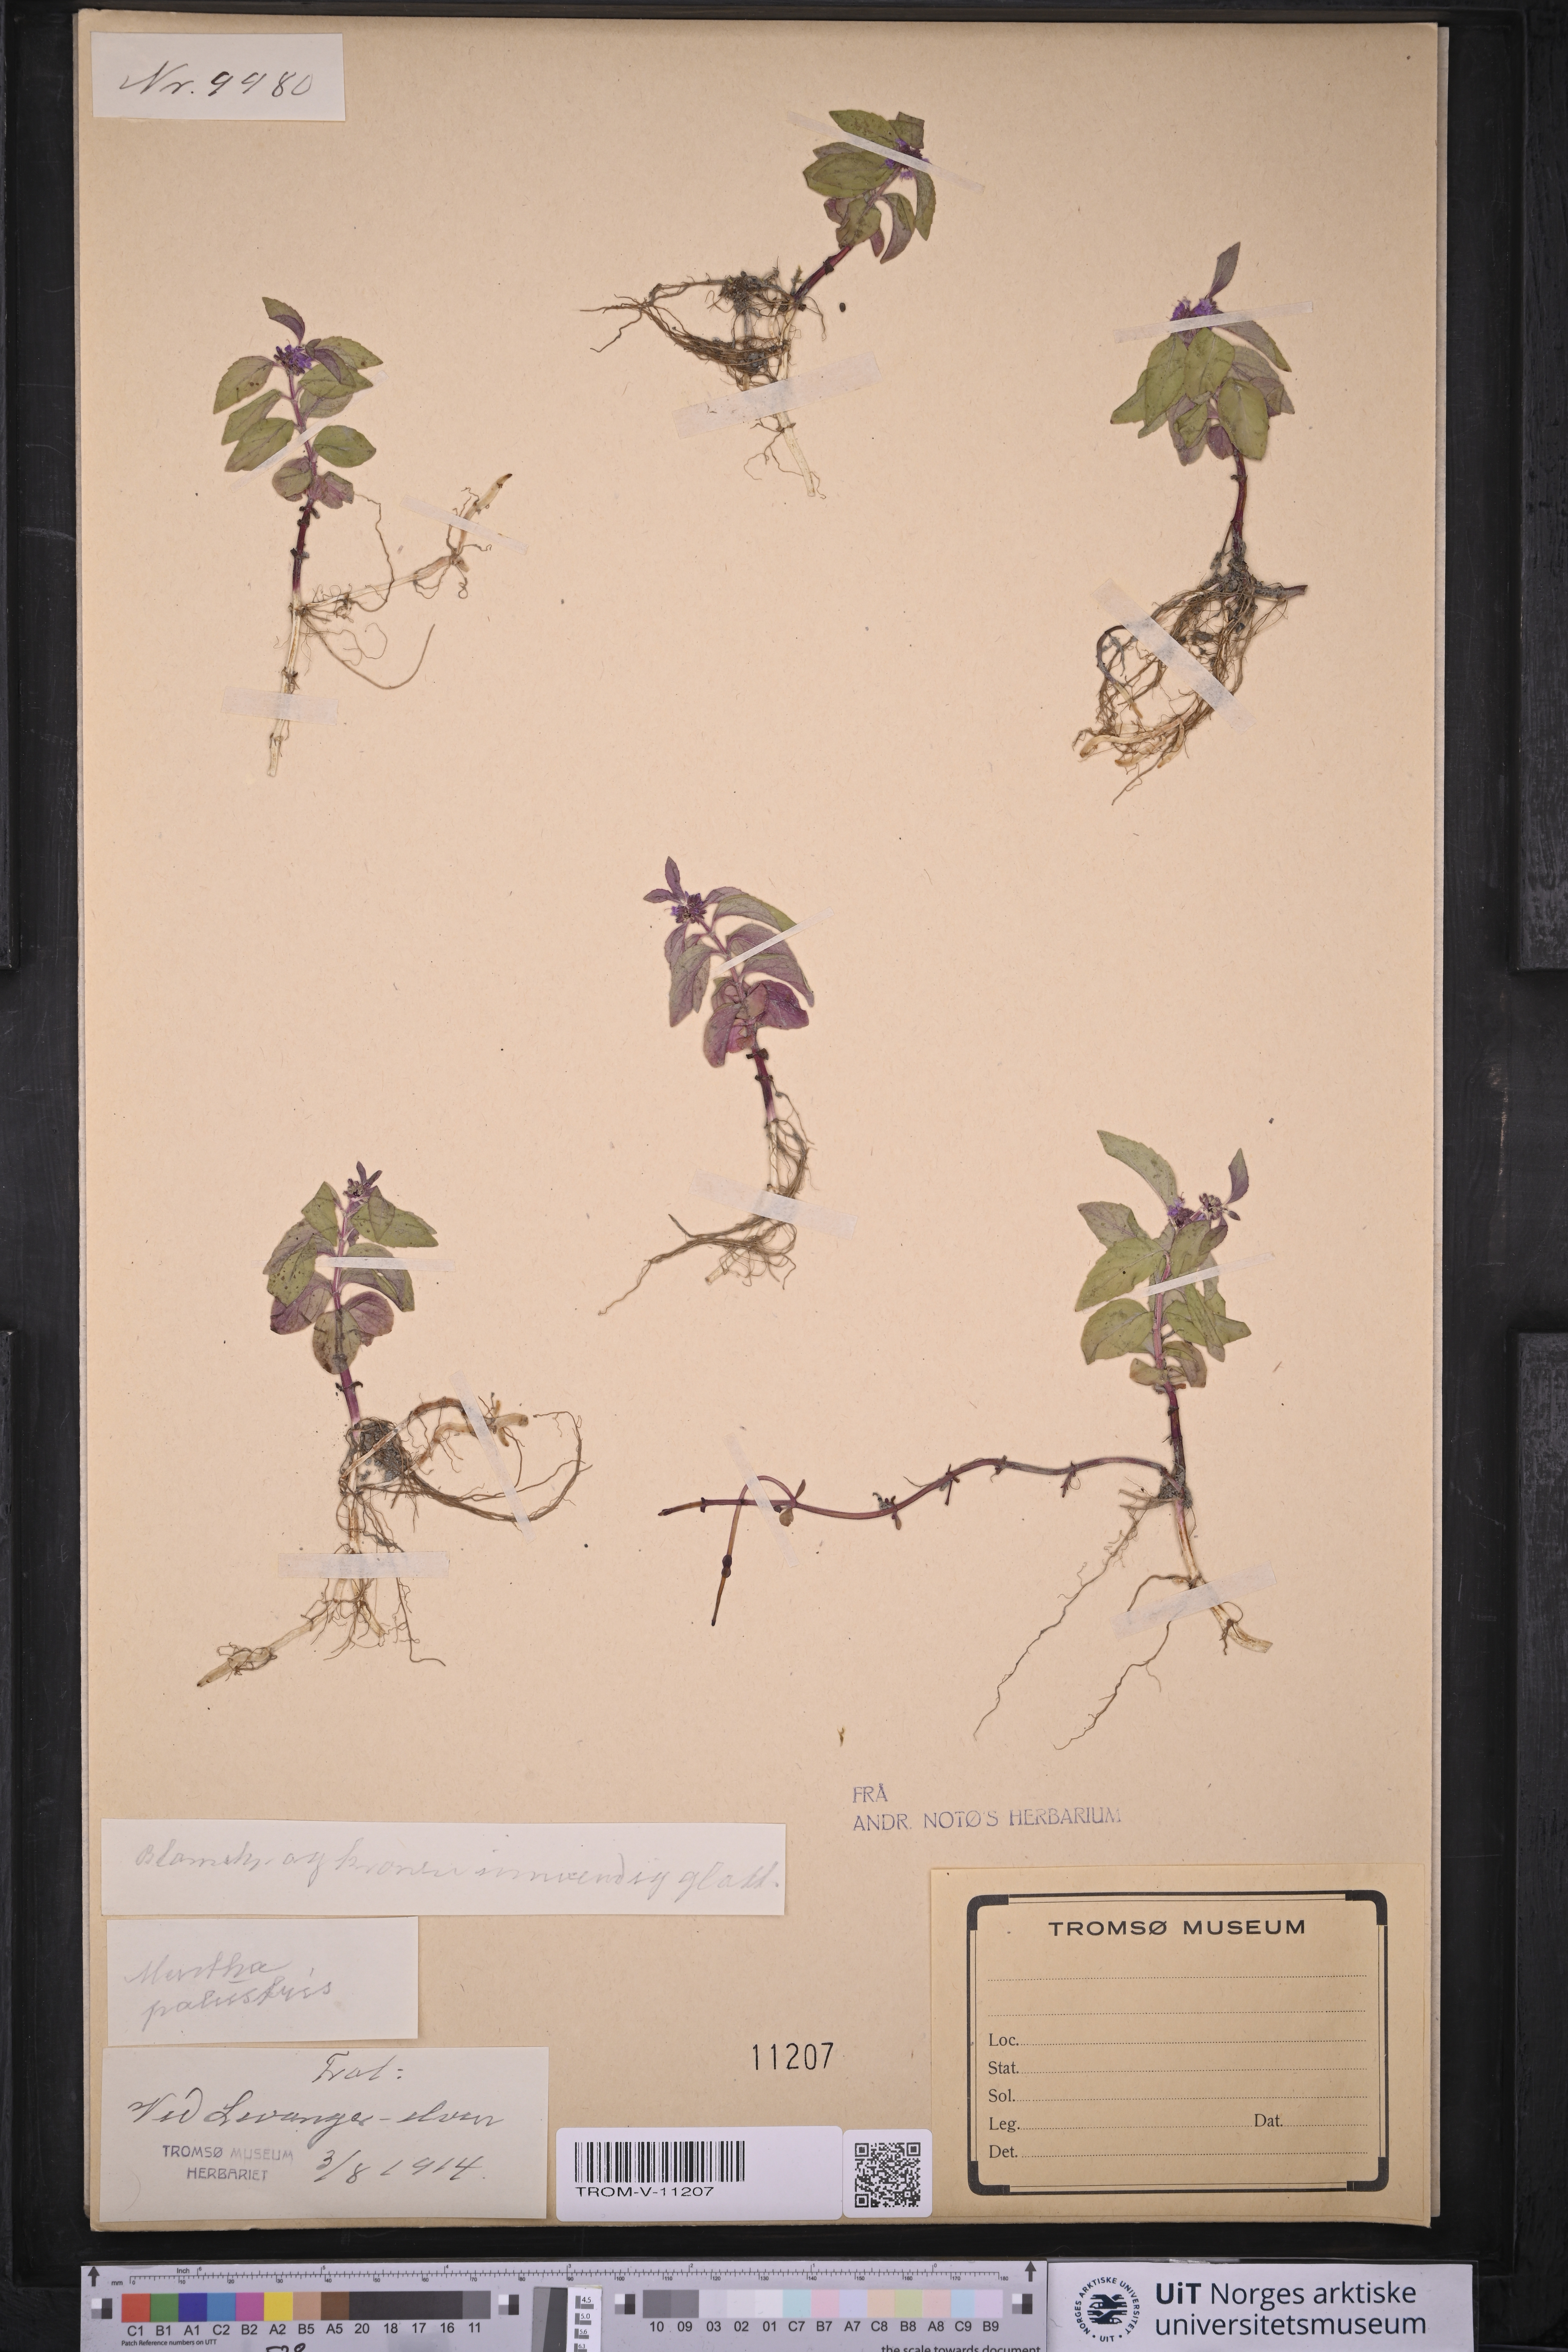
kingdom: Plantae
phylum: Tracheophyta
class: Magnoliopsida
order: Lamiales
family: Lamiaceae
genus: Mentha
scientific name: Mentha arvensis
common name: Corn mint
